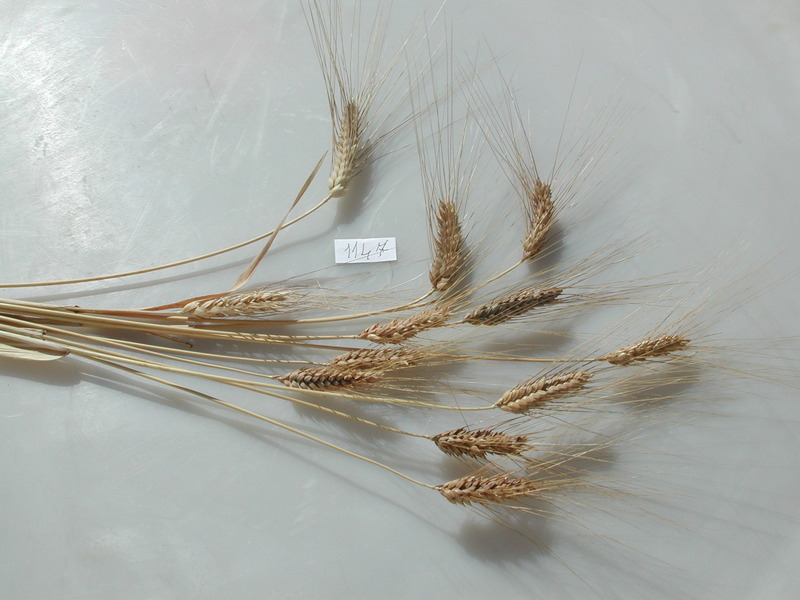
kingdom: Plantae
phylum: Tracheophyta
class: Liliopsida
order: Poales
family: Poaceae
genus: Triticum
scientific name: Triticum turgidum
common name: Wheat
